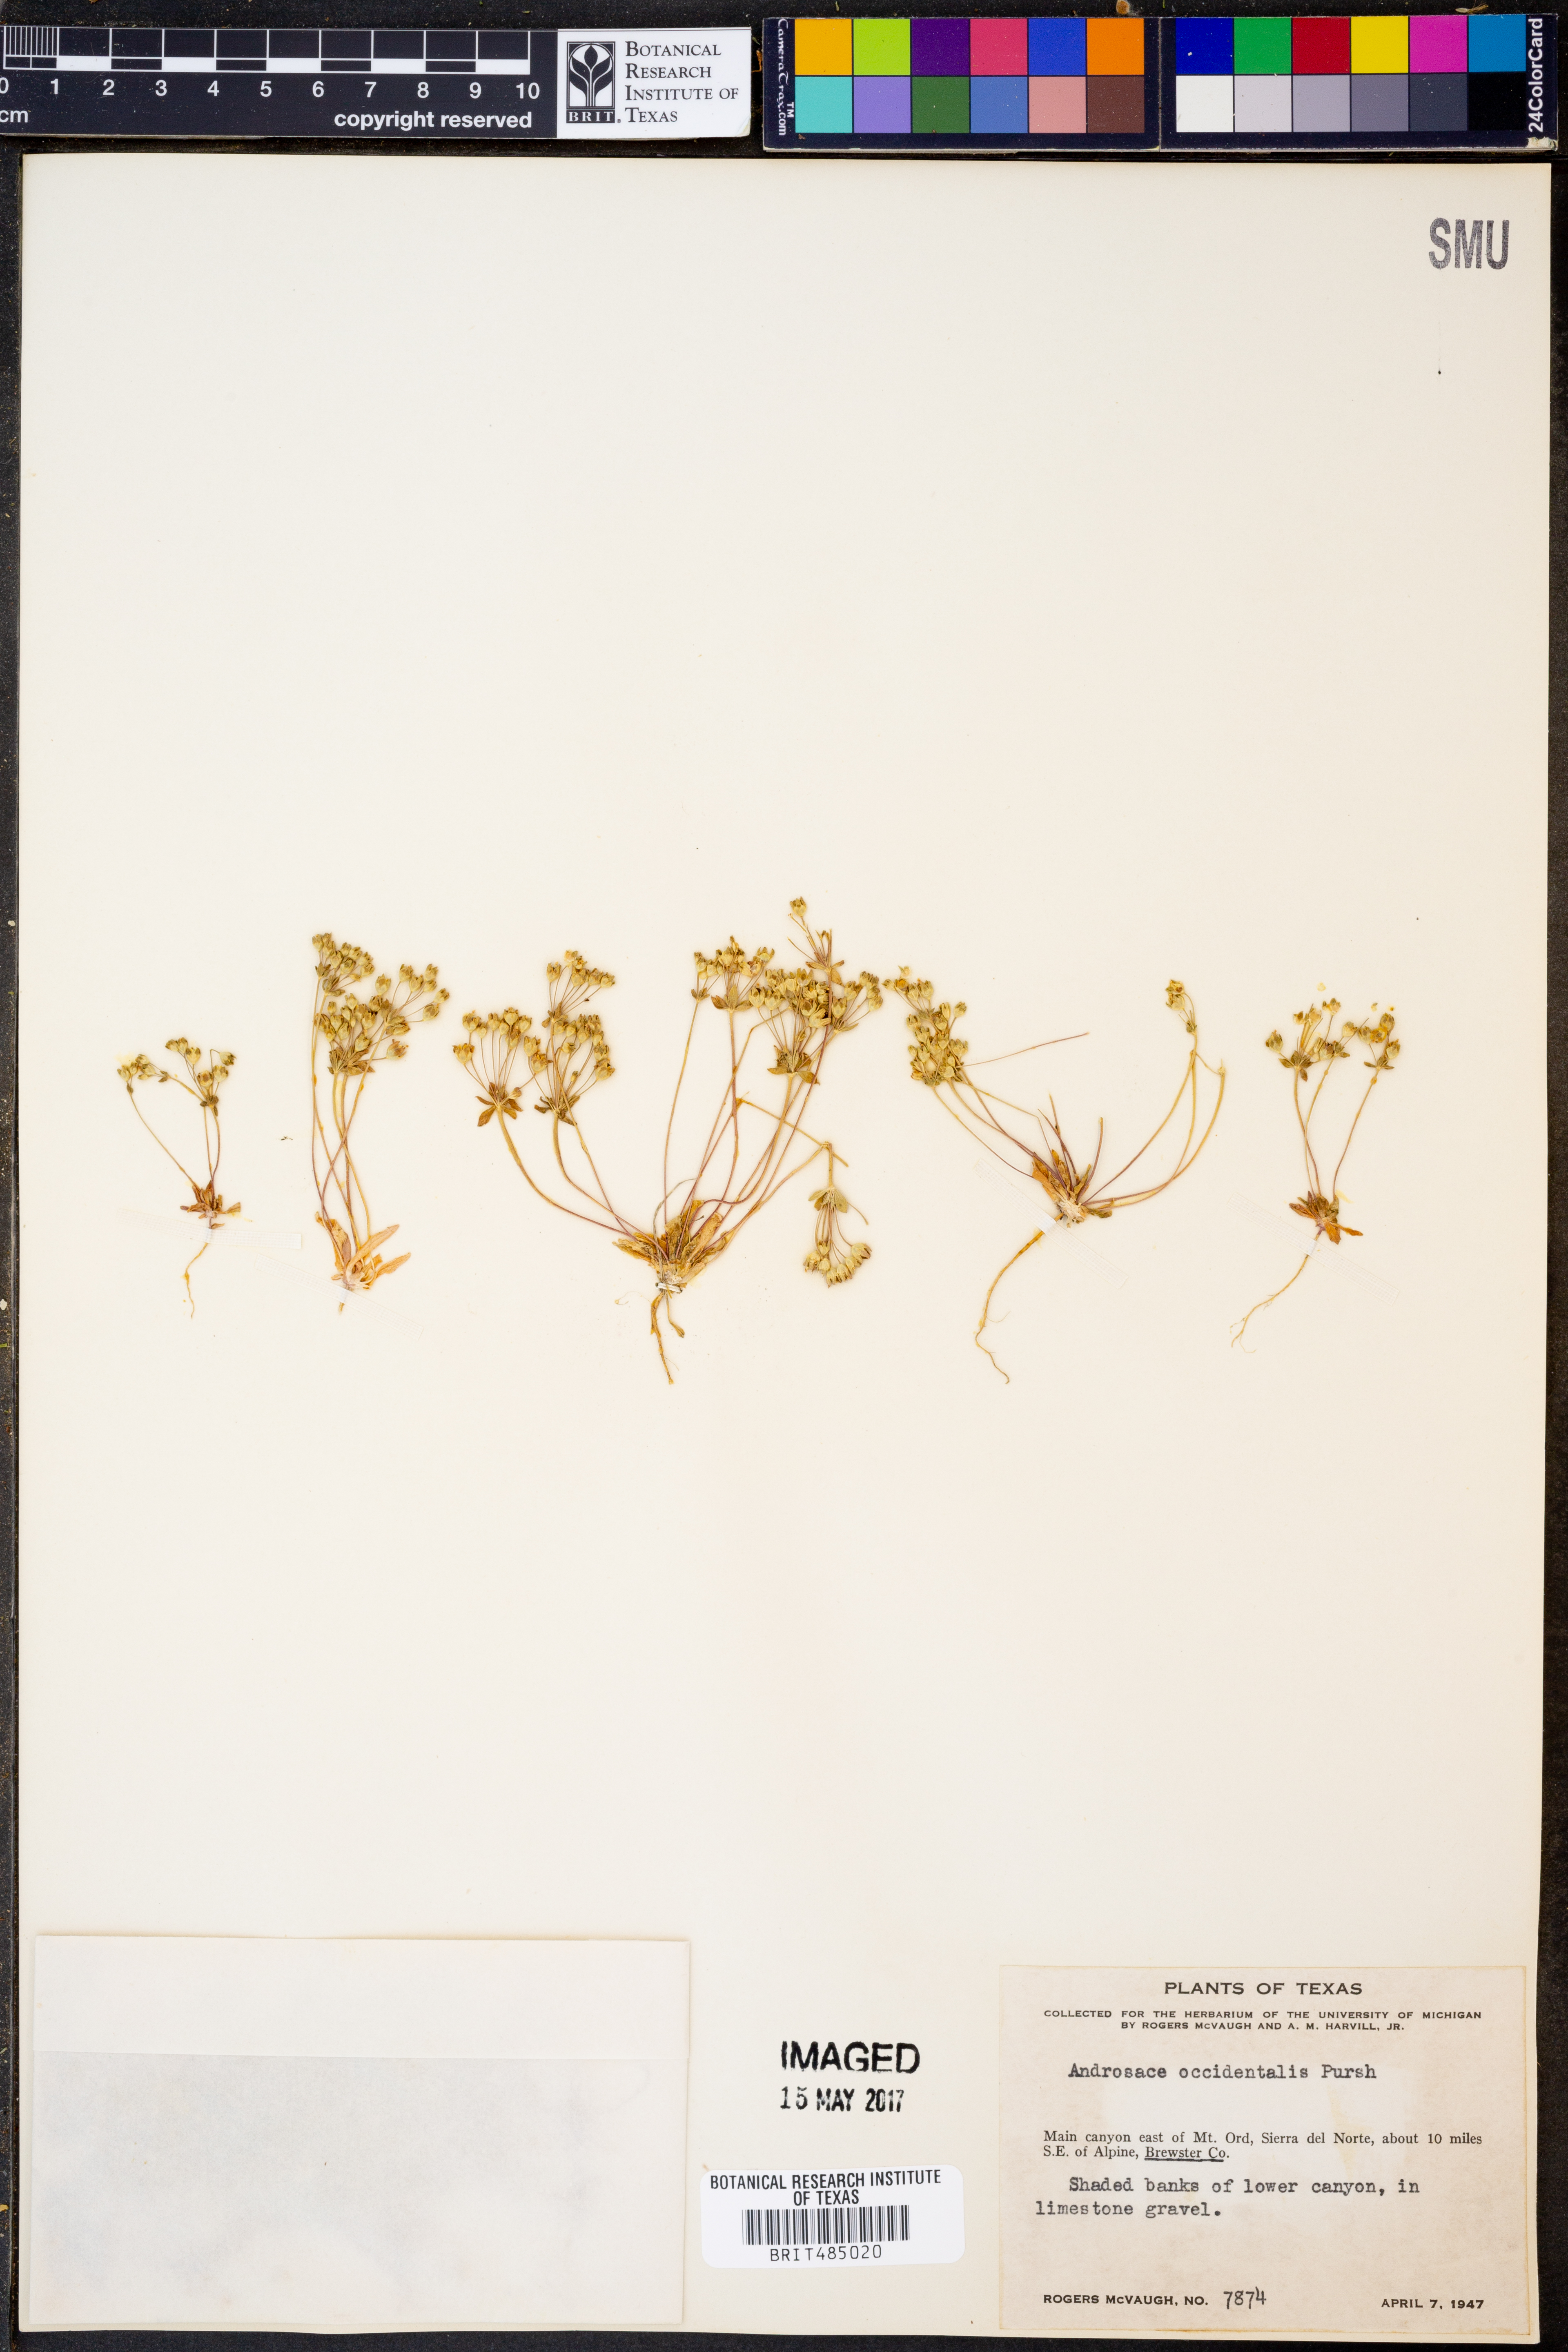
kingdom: Plantae
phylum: Tracheophyta
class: Magnoliopsida
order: Ericales
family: Primulaceae
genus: Androsace
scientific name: Androsace occidentalis
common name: West rock-jasmine
